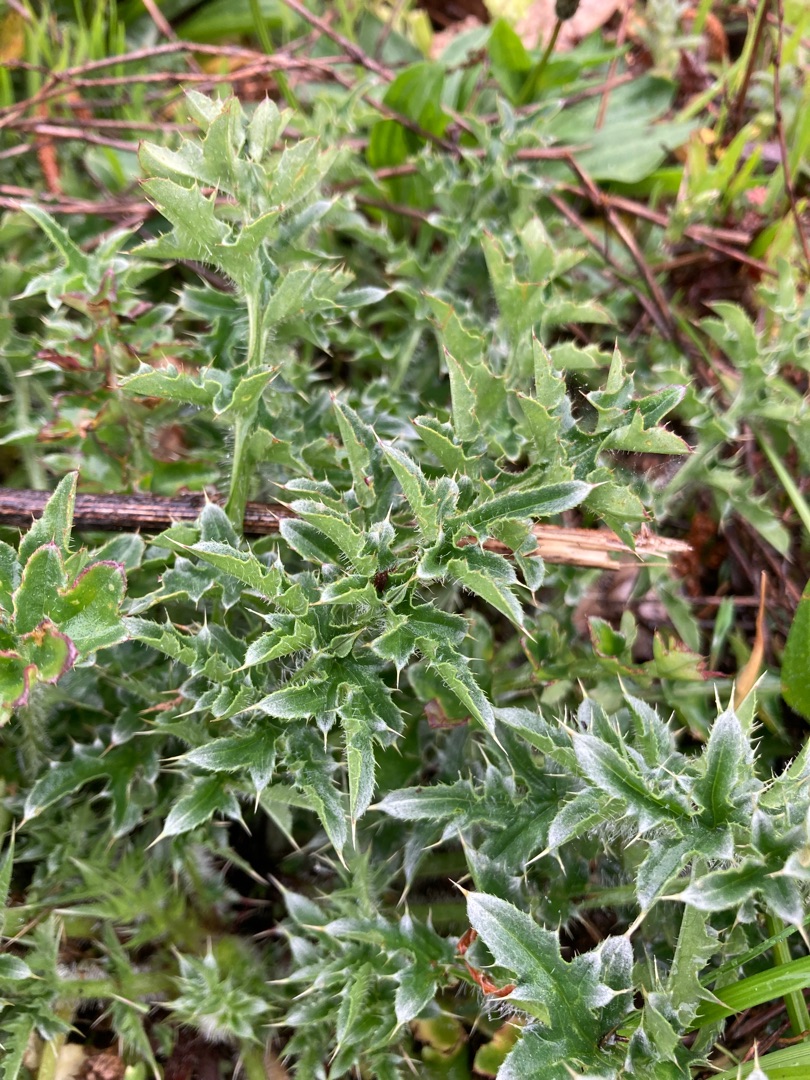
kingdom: Plantae
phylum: Tracheophyta
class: Magnoliopsida
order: Asterales
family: Asteraceae
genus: Carduus
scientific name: Carduus acanthoides
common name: Tornet tidsel
